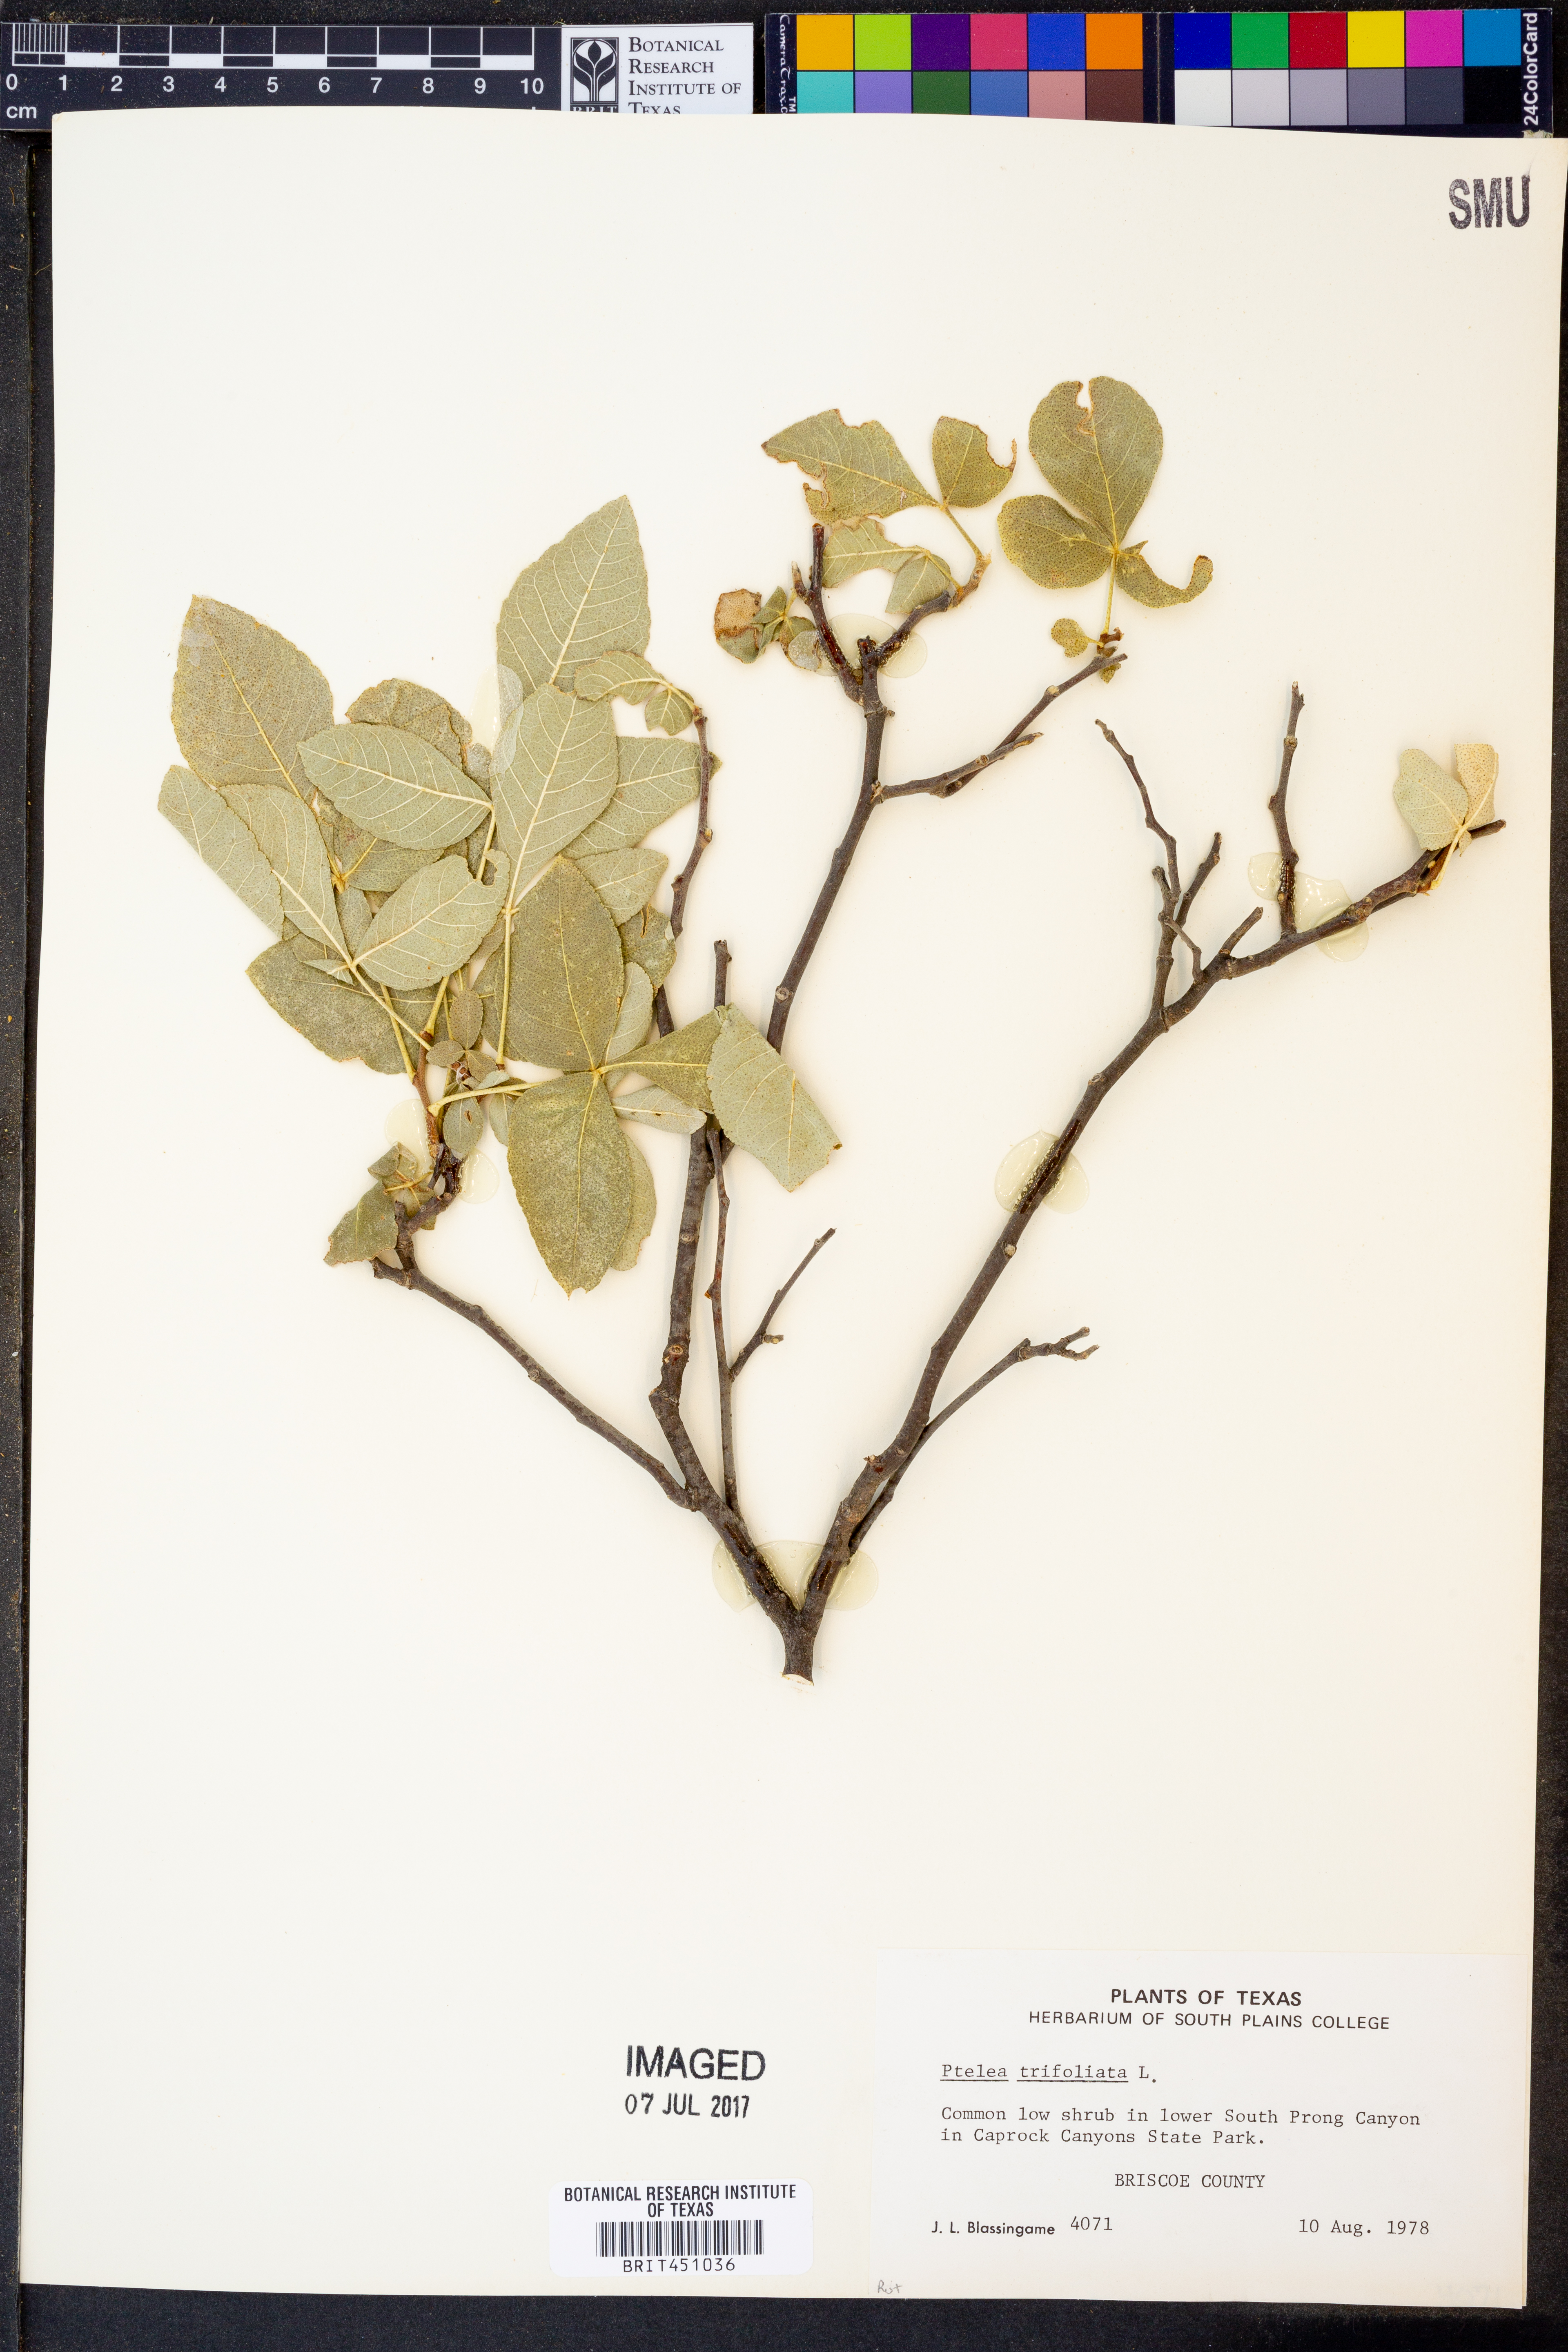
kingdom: Plantae
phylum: Tracheophyta
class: Magnoliopsida
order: Sapindales
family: Rutaceae
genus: Ptelea
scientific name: Ptelea trifoliata
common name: Common hop-tree
